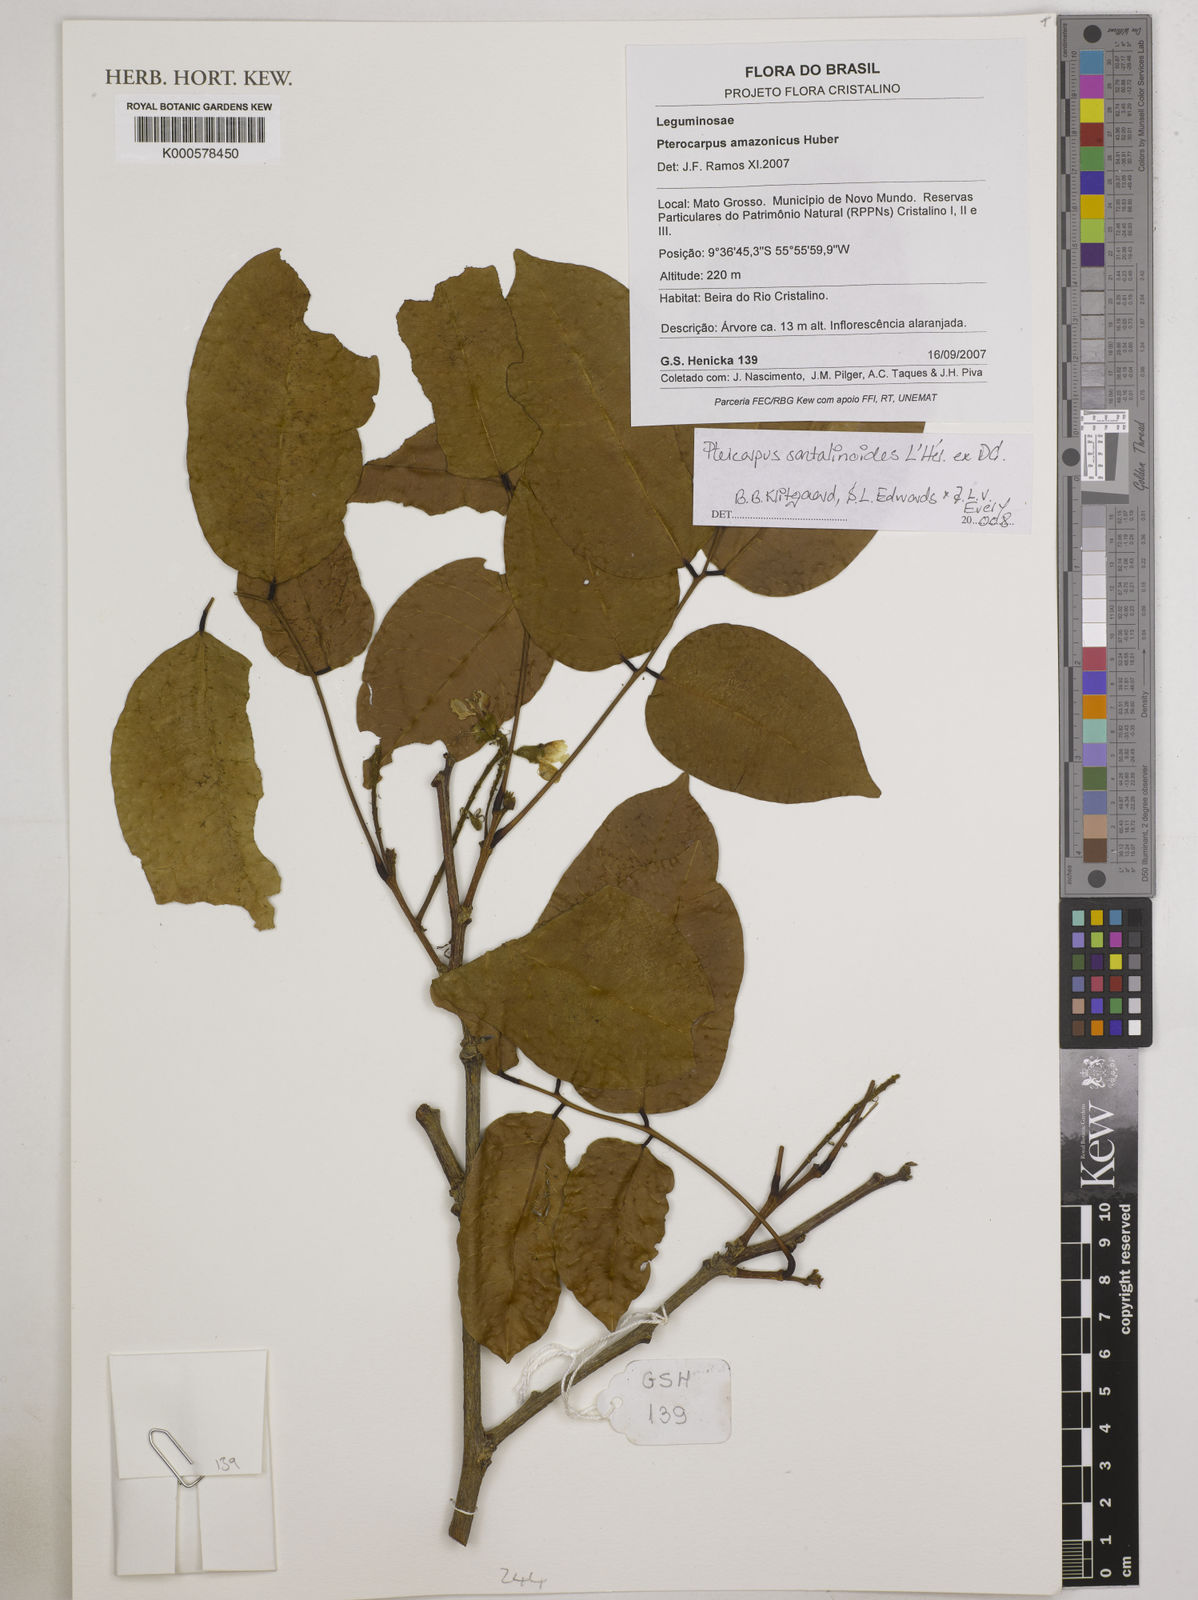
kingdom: Plantae
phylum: Tracheophyta
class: Magnoliopsida
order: Fabales
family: Fabaceae
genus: Pterocarpus
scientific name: Pterocarpus
